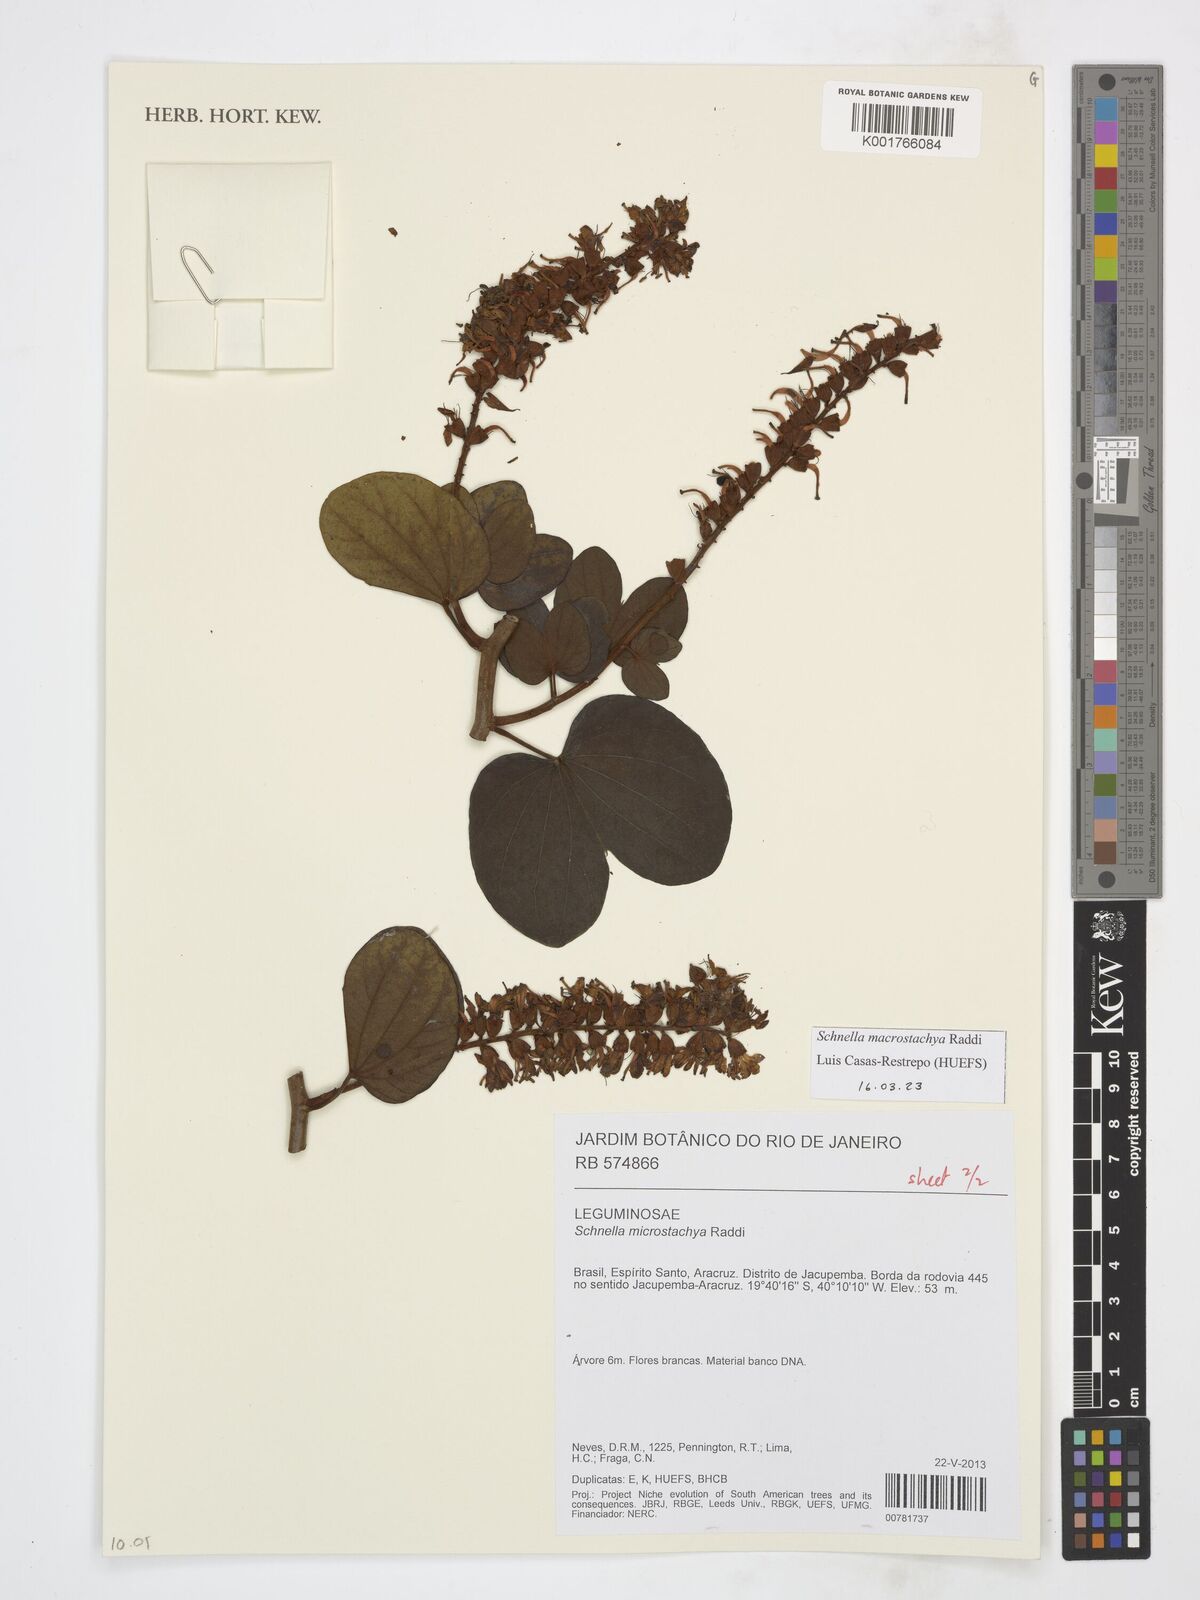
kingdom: Plantae
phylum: Tracheophyta
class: Magnoliopsida
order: Fabales
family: Fabaceae
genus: Schnella
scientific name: Schnella macrostachya
